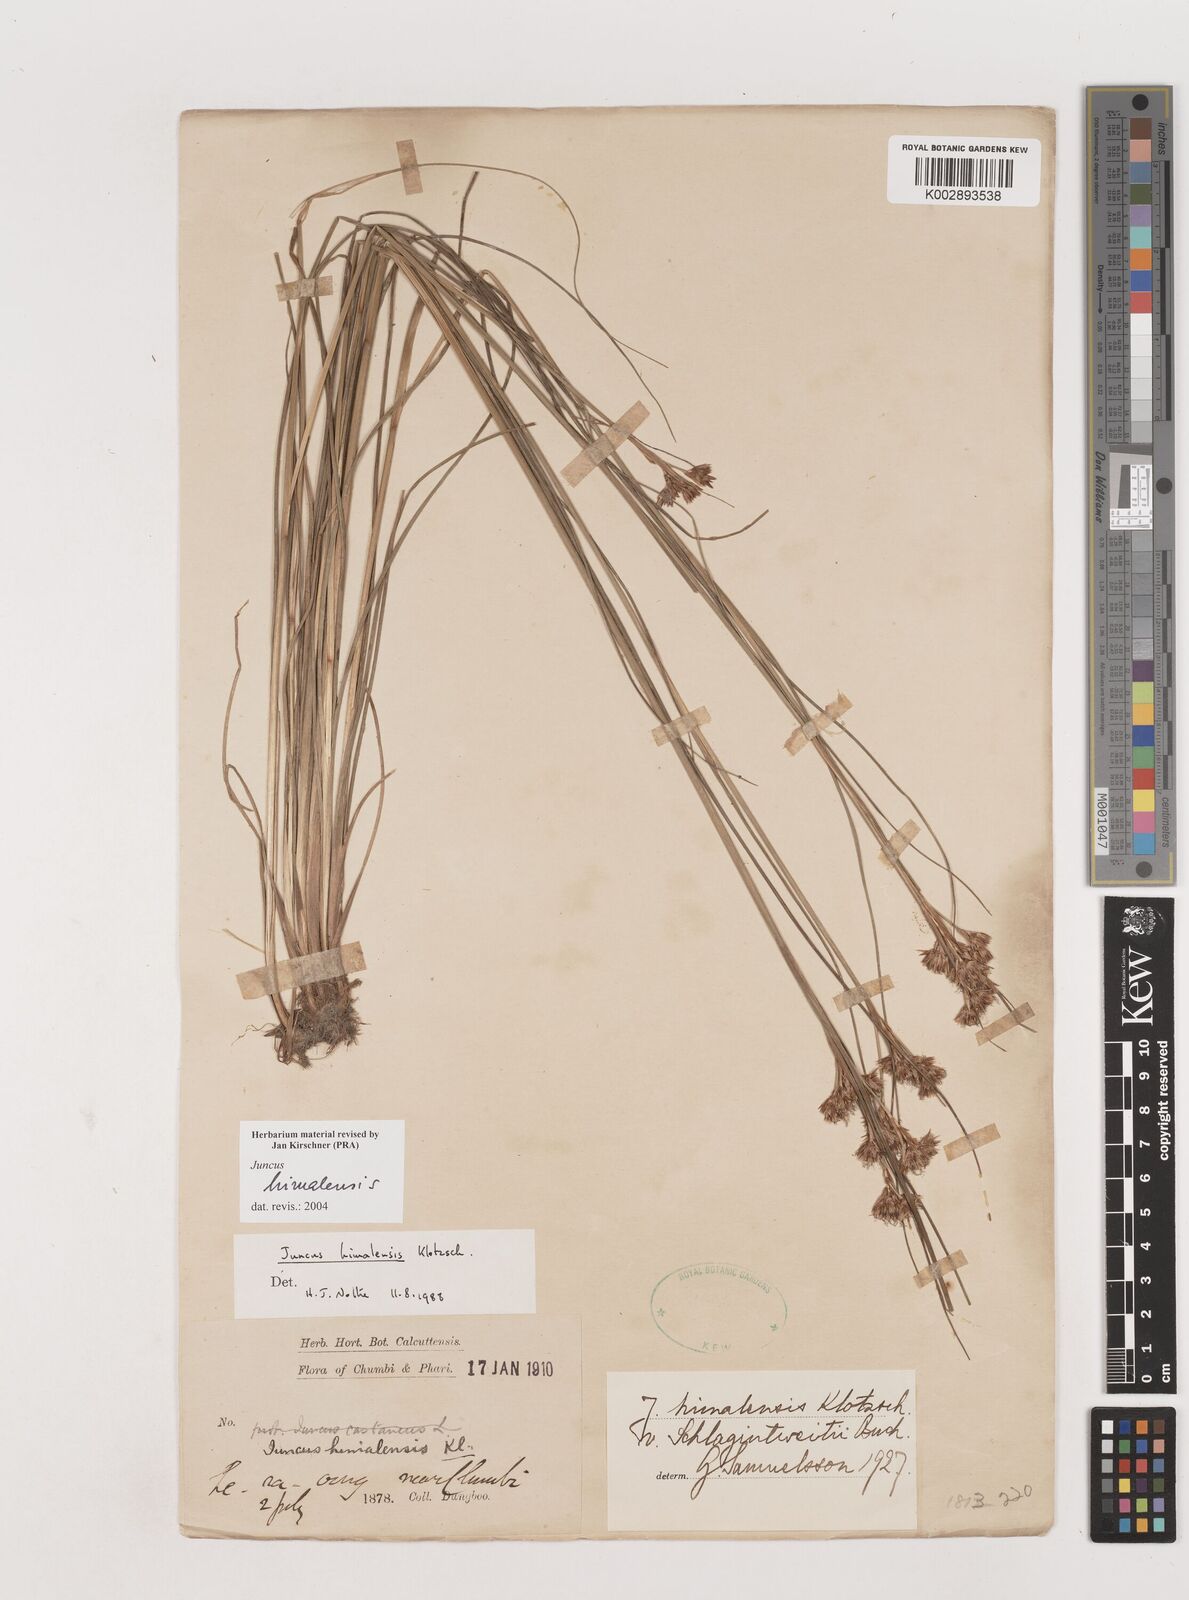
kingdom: Plantae
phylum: Tracheophyta
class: Liliopsida
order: Poales
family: Juncaceae
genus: Juncus
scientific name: Juncus himalensis
